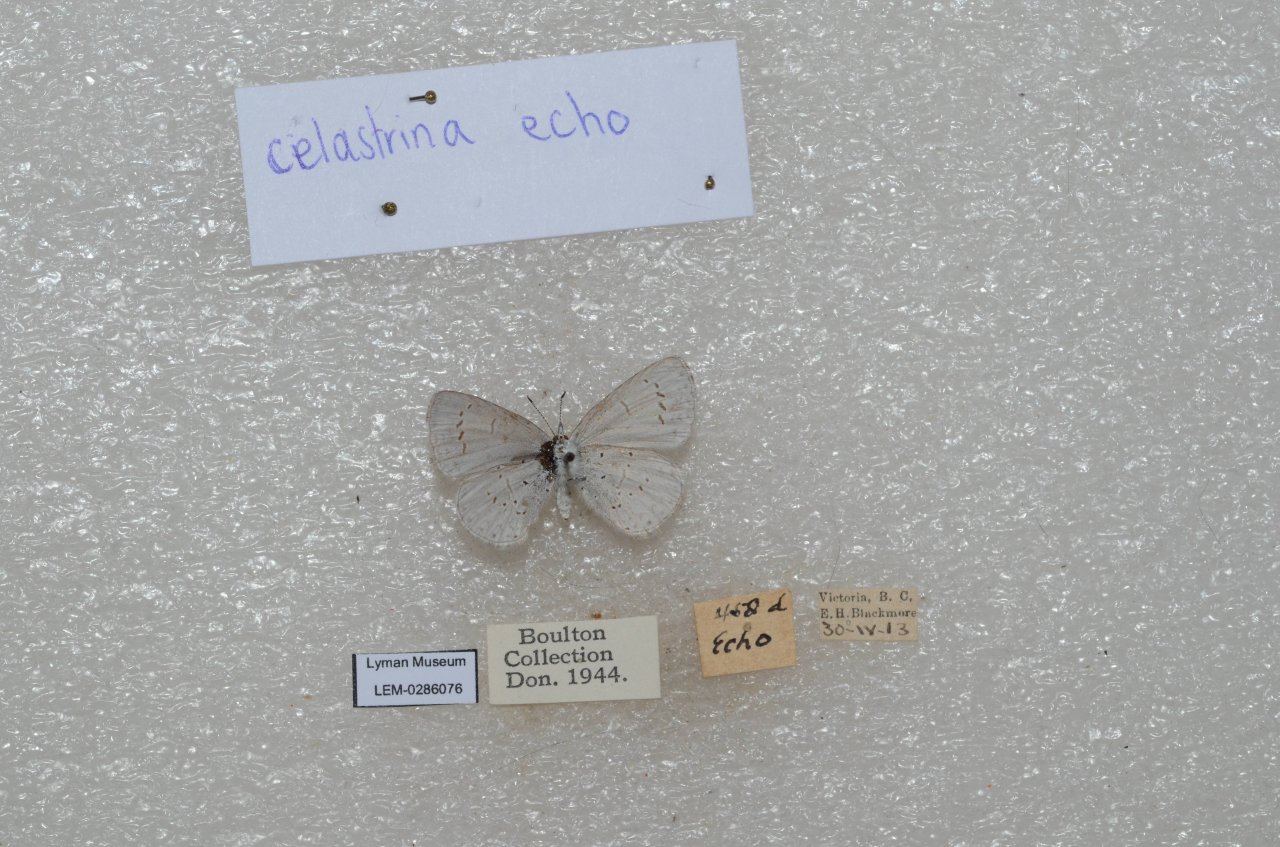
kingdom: Animalia
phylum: Arthropoda
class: Insecta
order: Lepidoptera
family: Lycaenidae
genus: Celastrina
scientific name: Celastrina ladon
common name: Echo Azure
